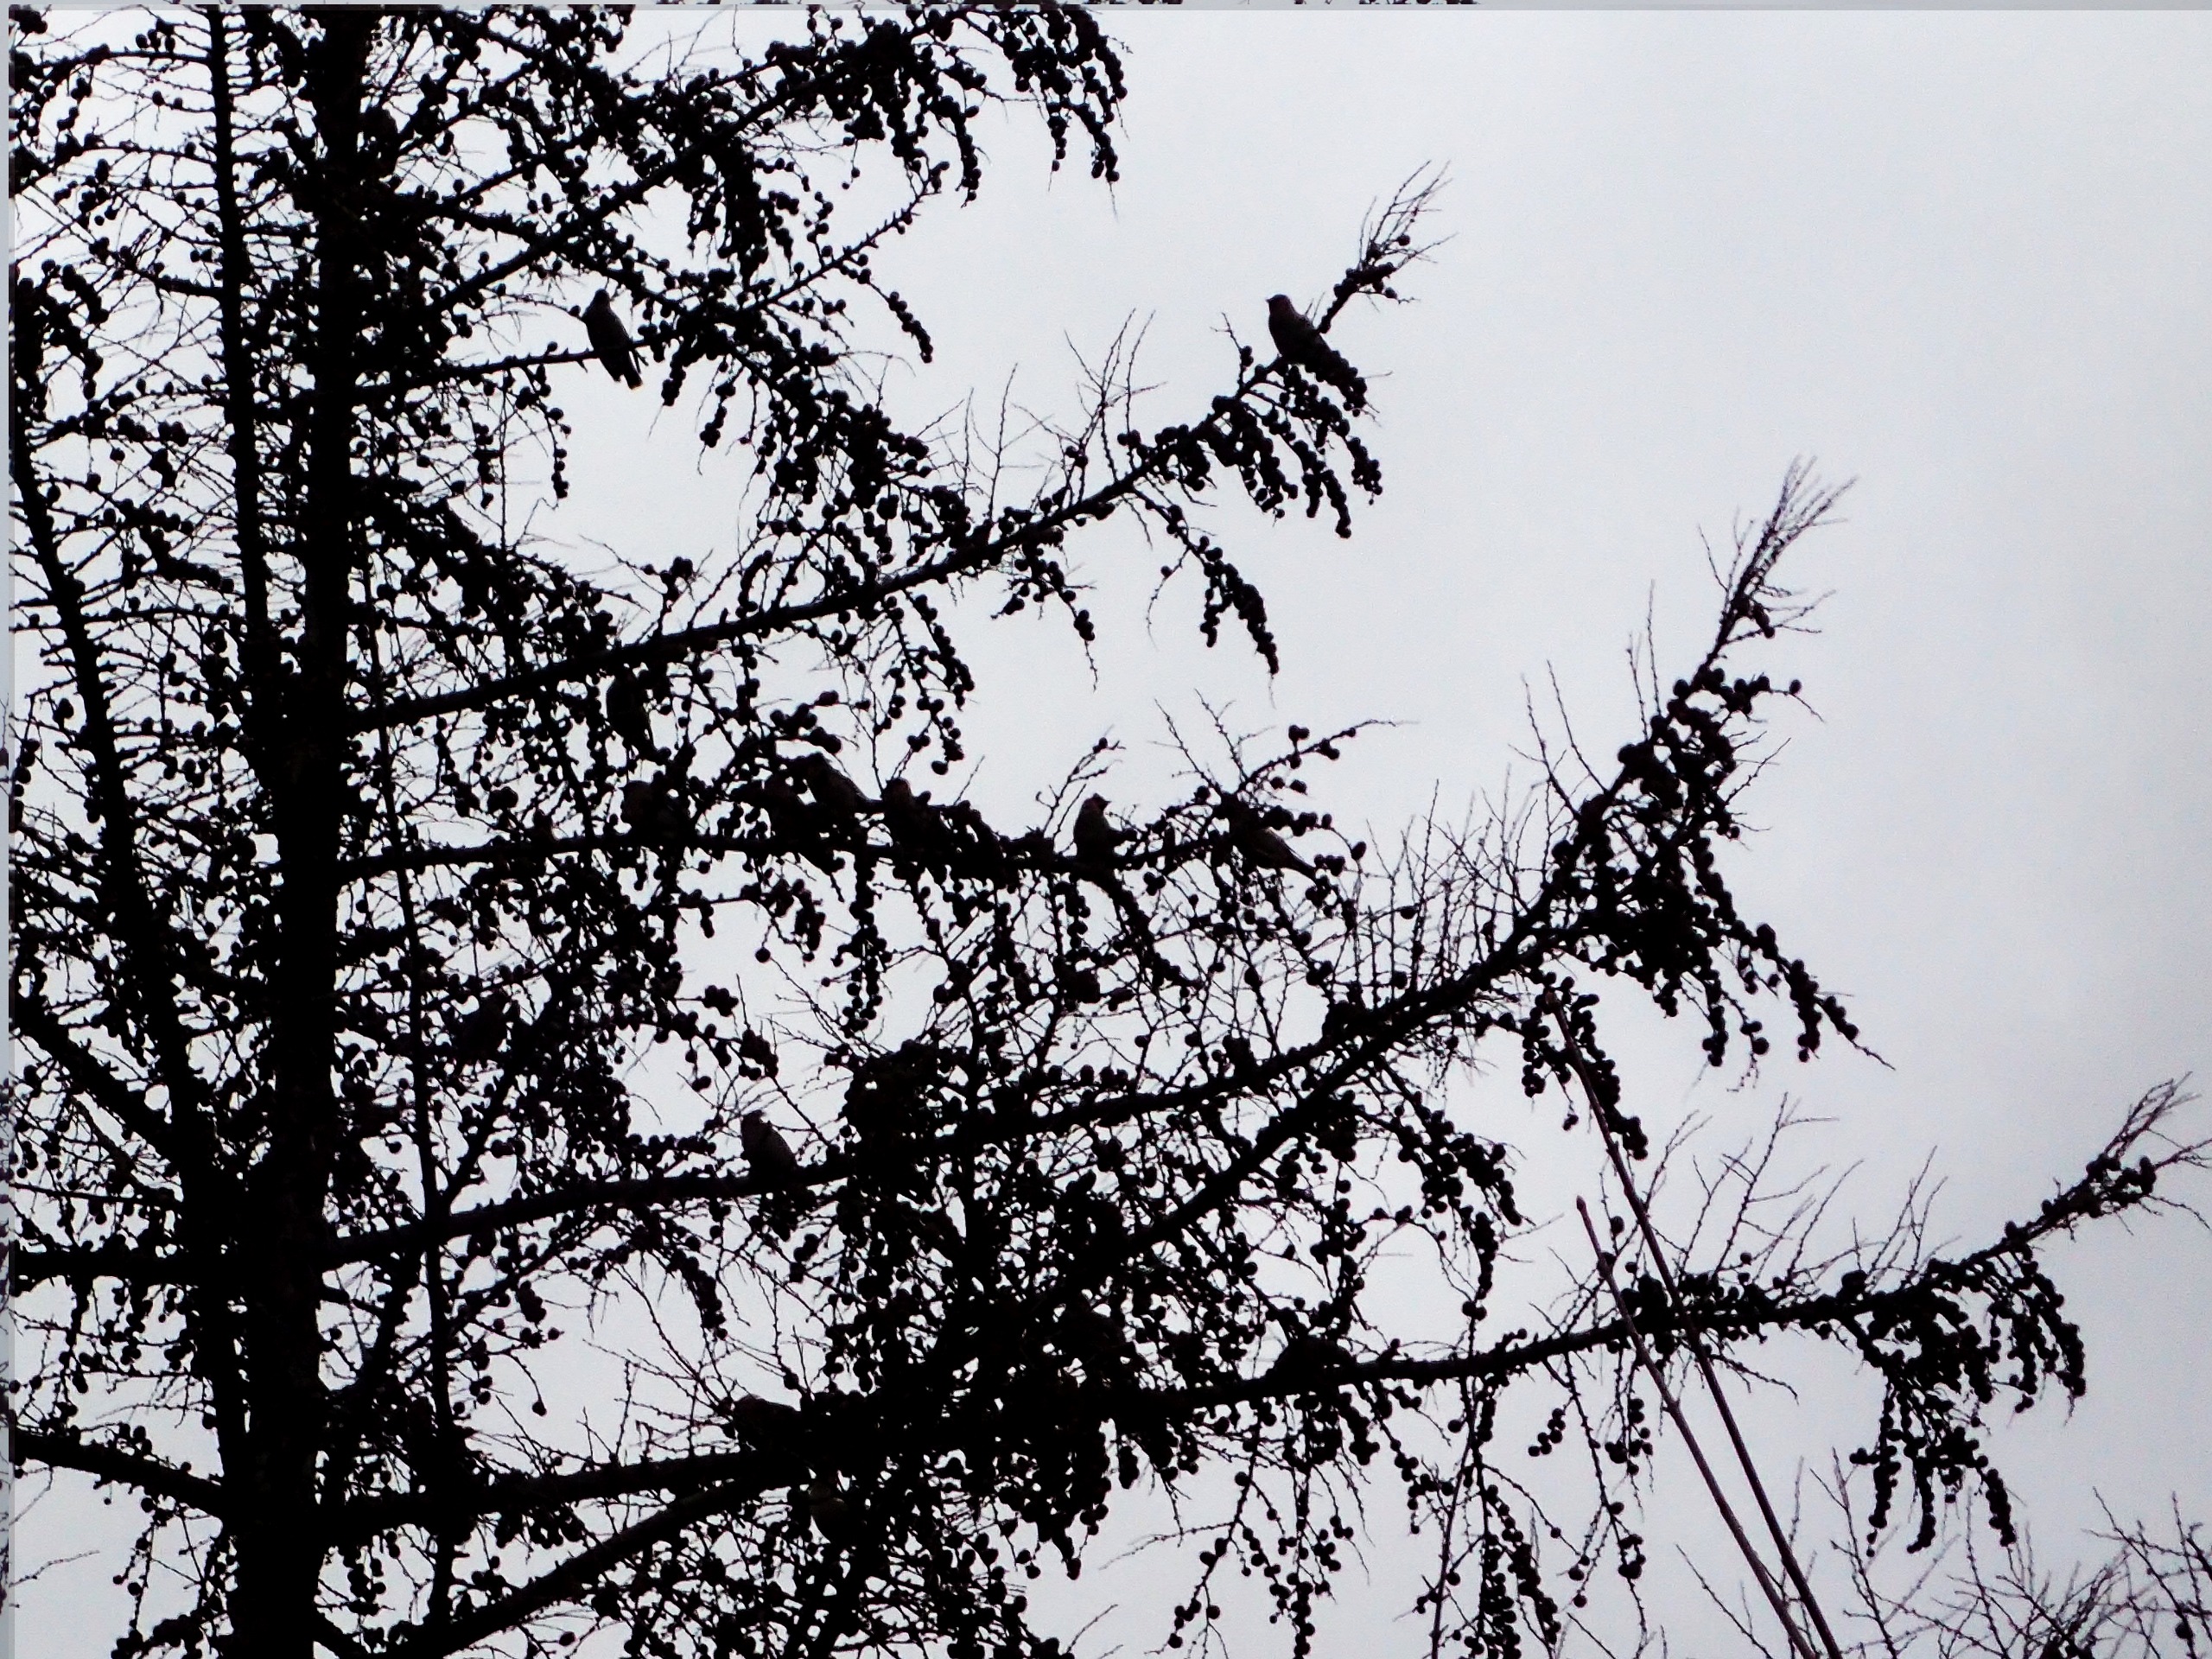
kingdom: Animalia
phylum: Chordata
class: Aves
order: Passeriformes
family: Bombycillidae
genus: Bombycilla
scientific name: Bombycilla garrulus
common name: Silkehale
